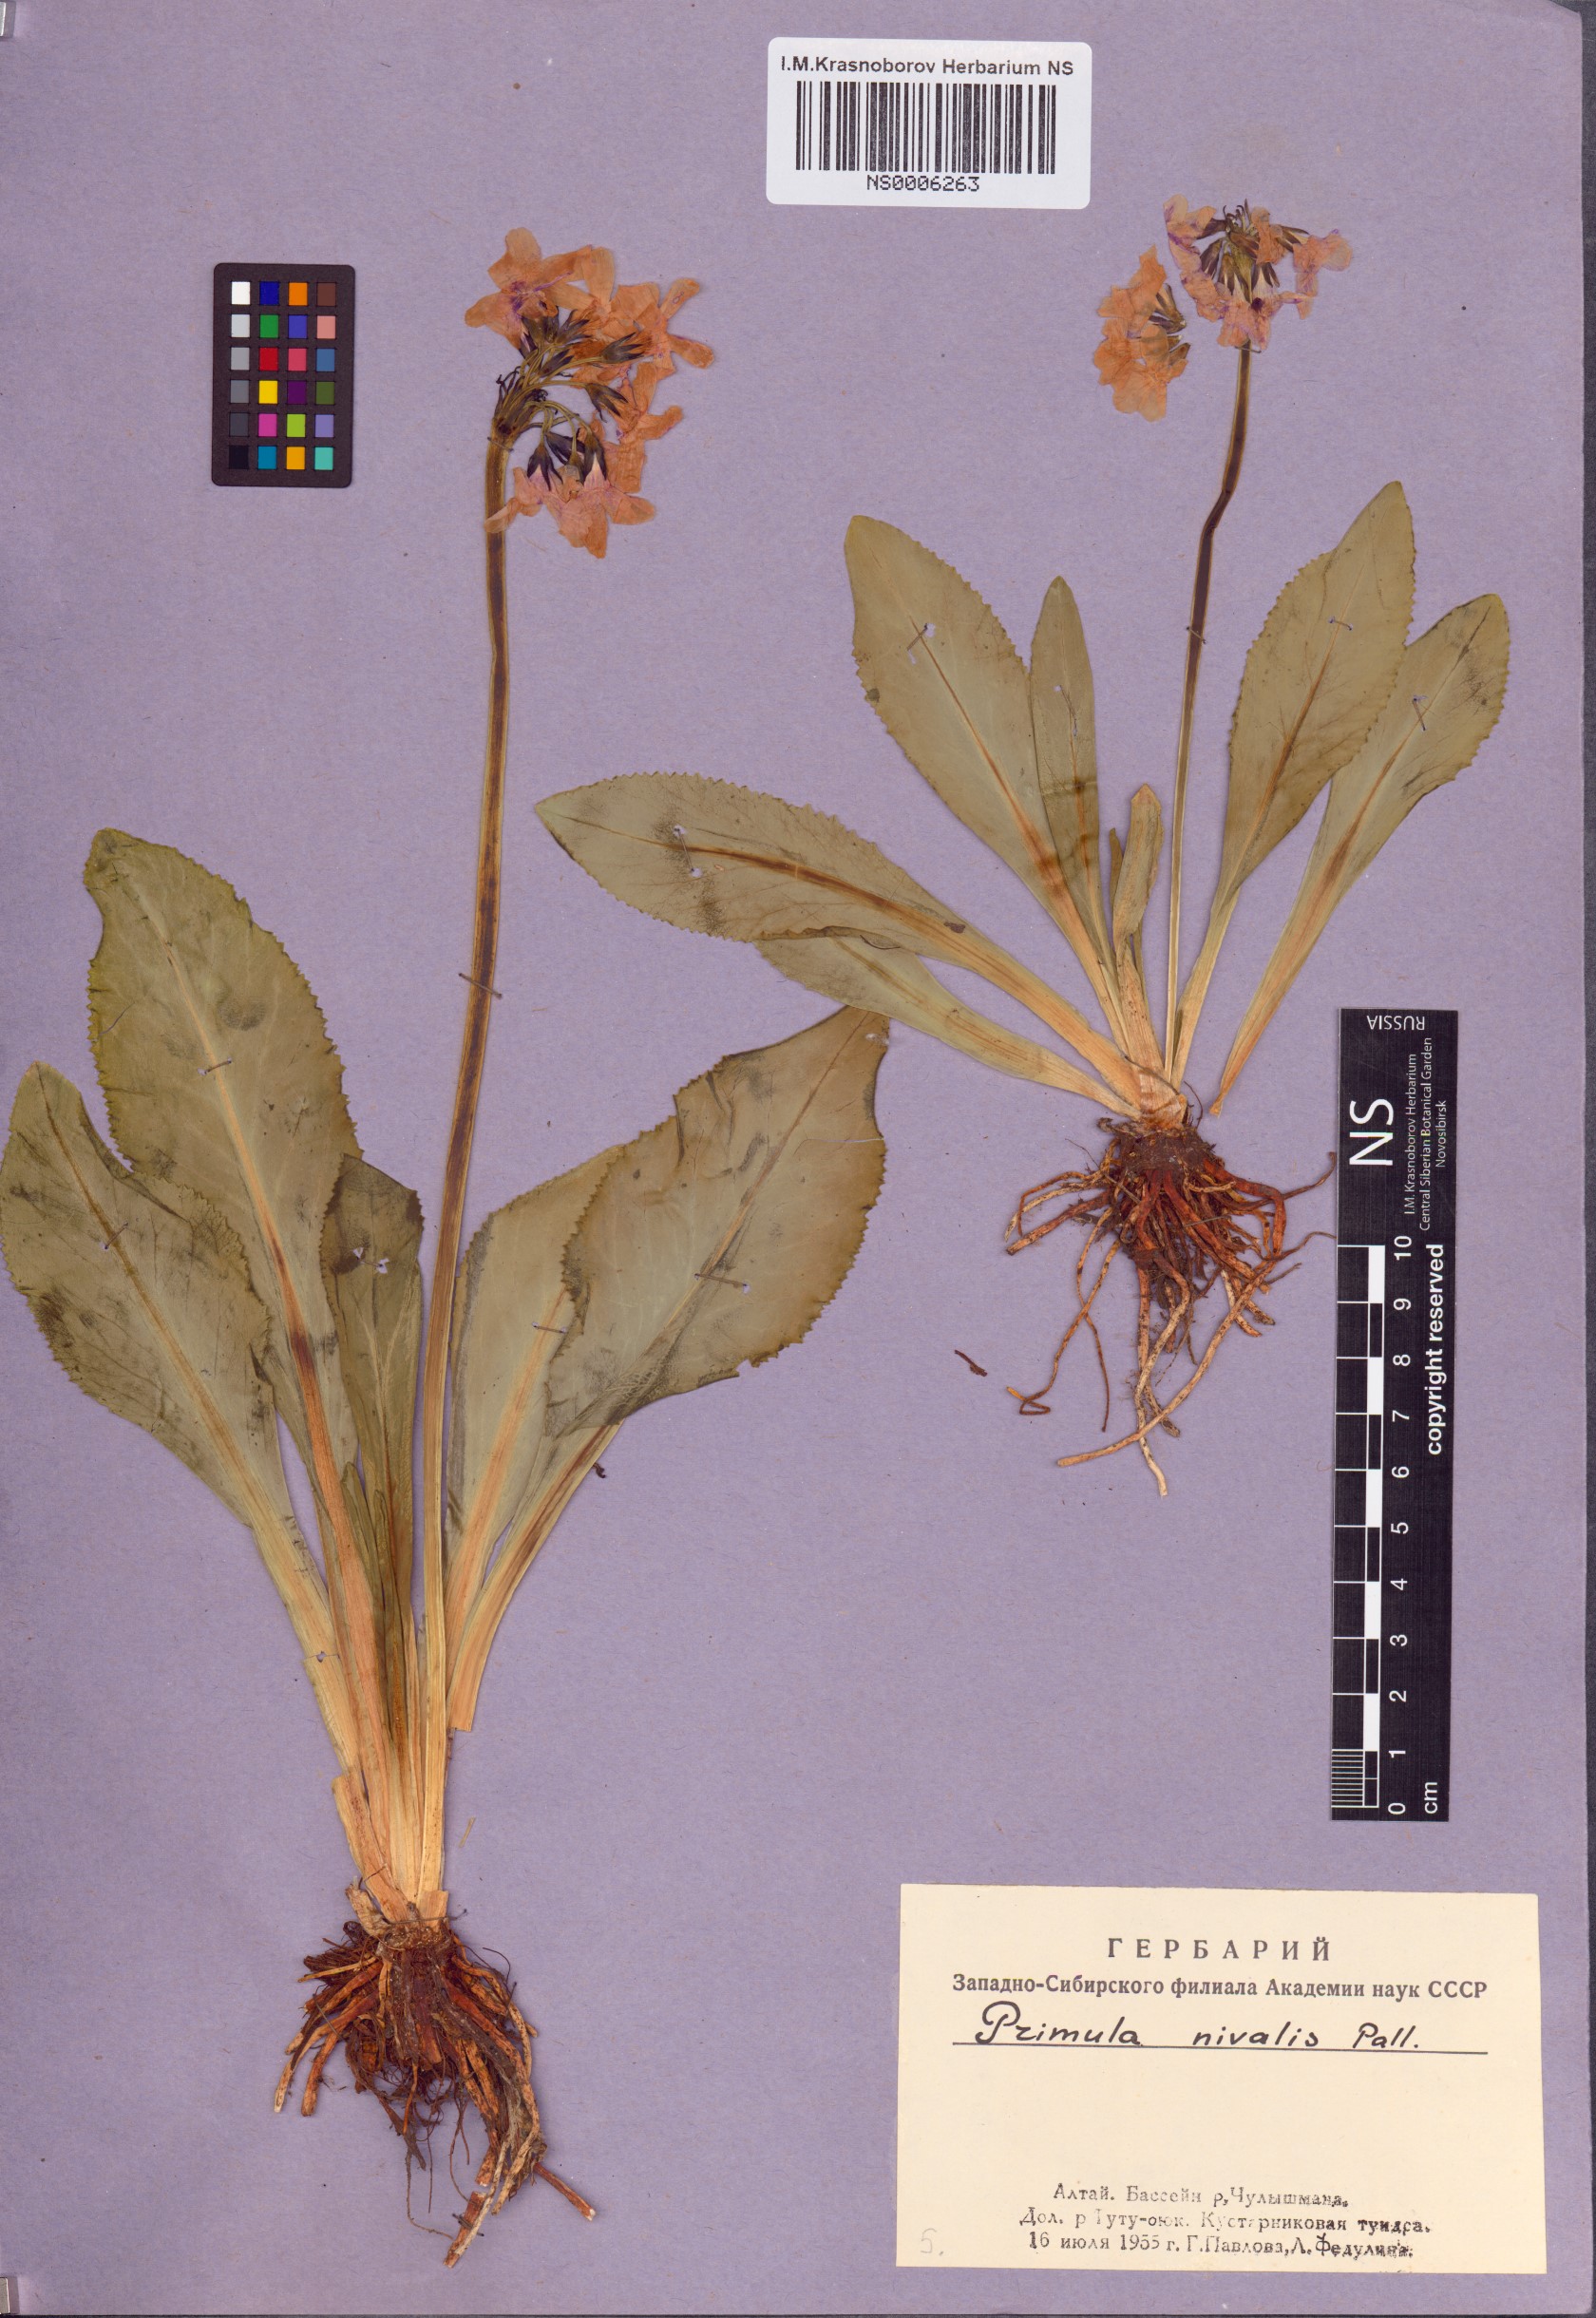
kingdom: Plantae
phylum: Tracheophyta
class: Magnoliopsida
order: Ericales
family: Primulaceae
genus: Primula
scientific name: Primula nivalis
